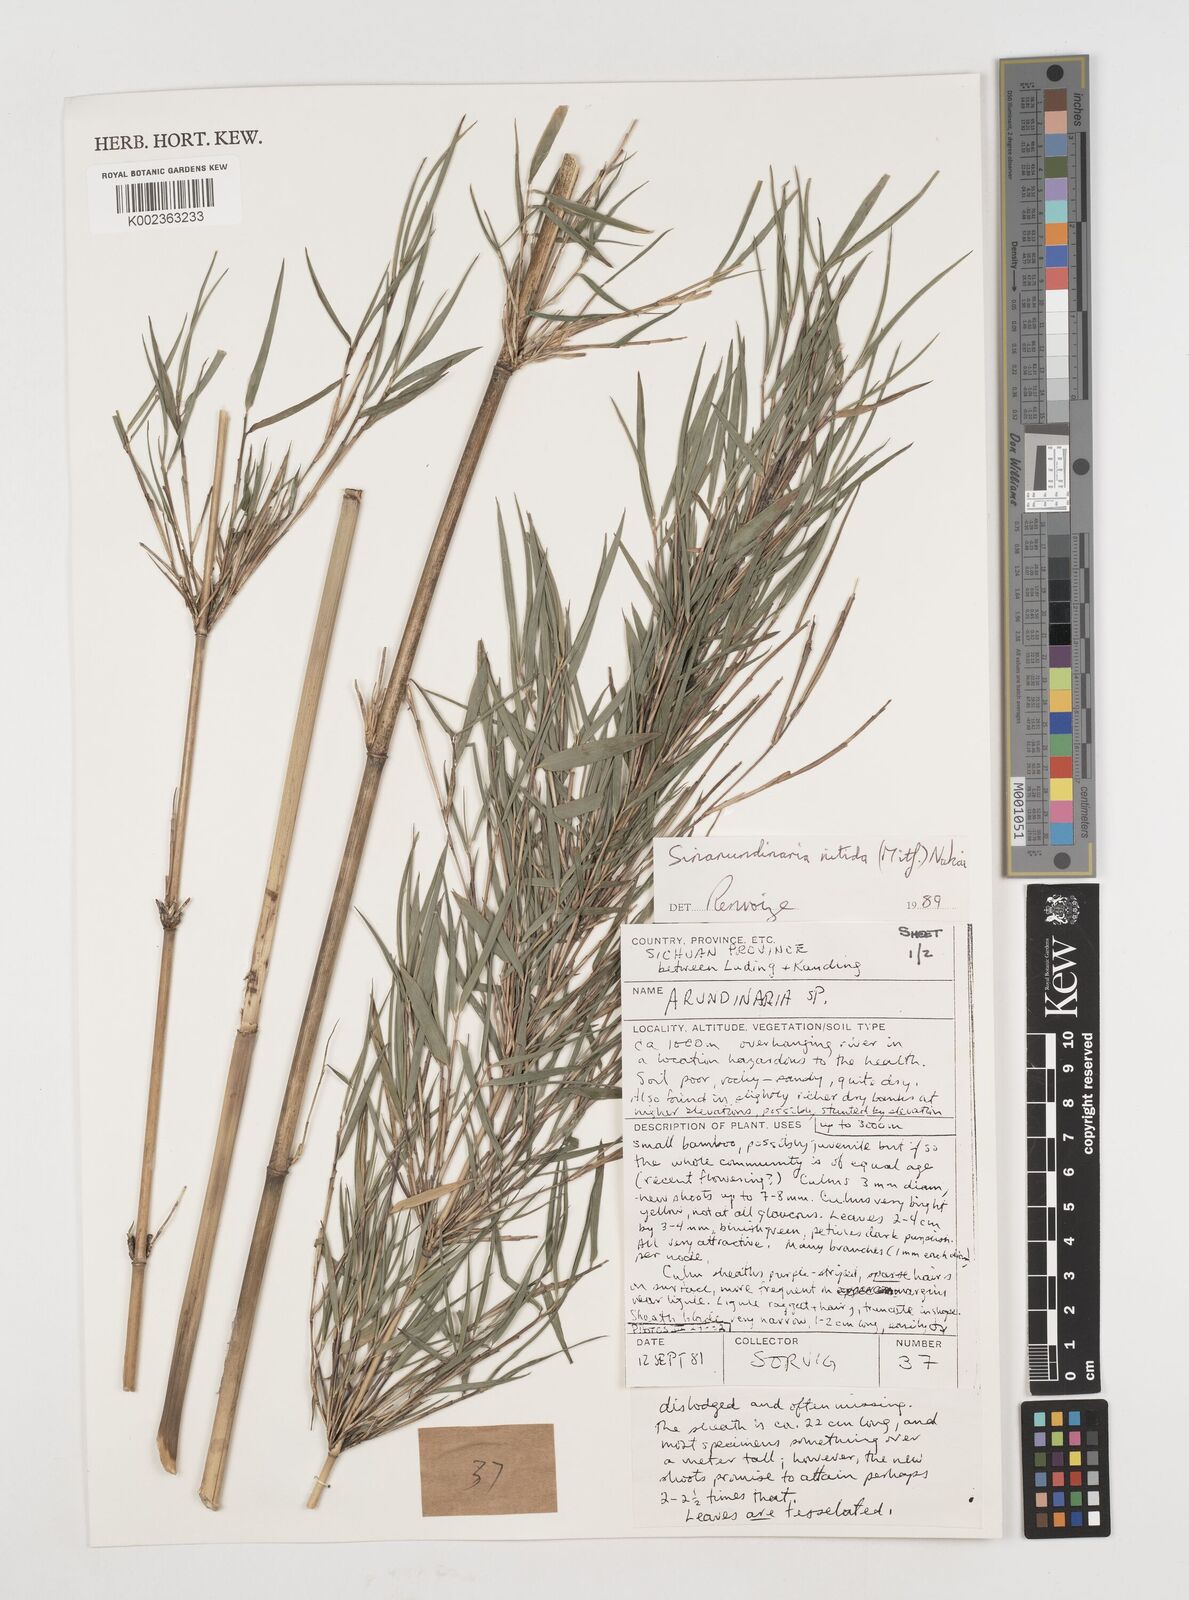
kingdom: Plantae
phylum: Tracheophyta
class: Liliopsida
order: Poales
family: Poaceae
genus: Fargesia
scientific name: Fargesia
